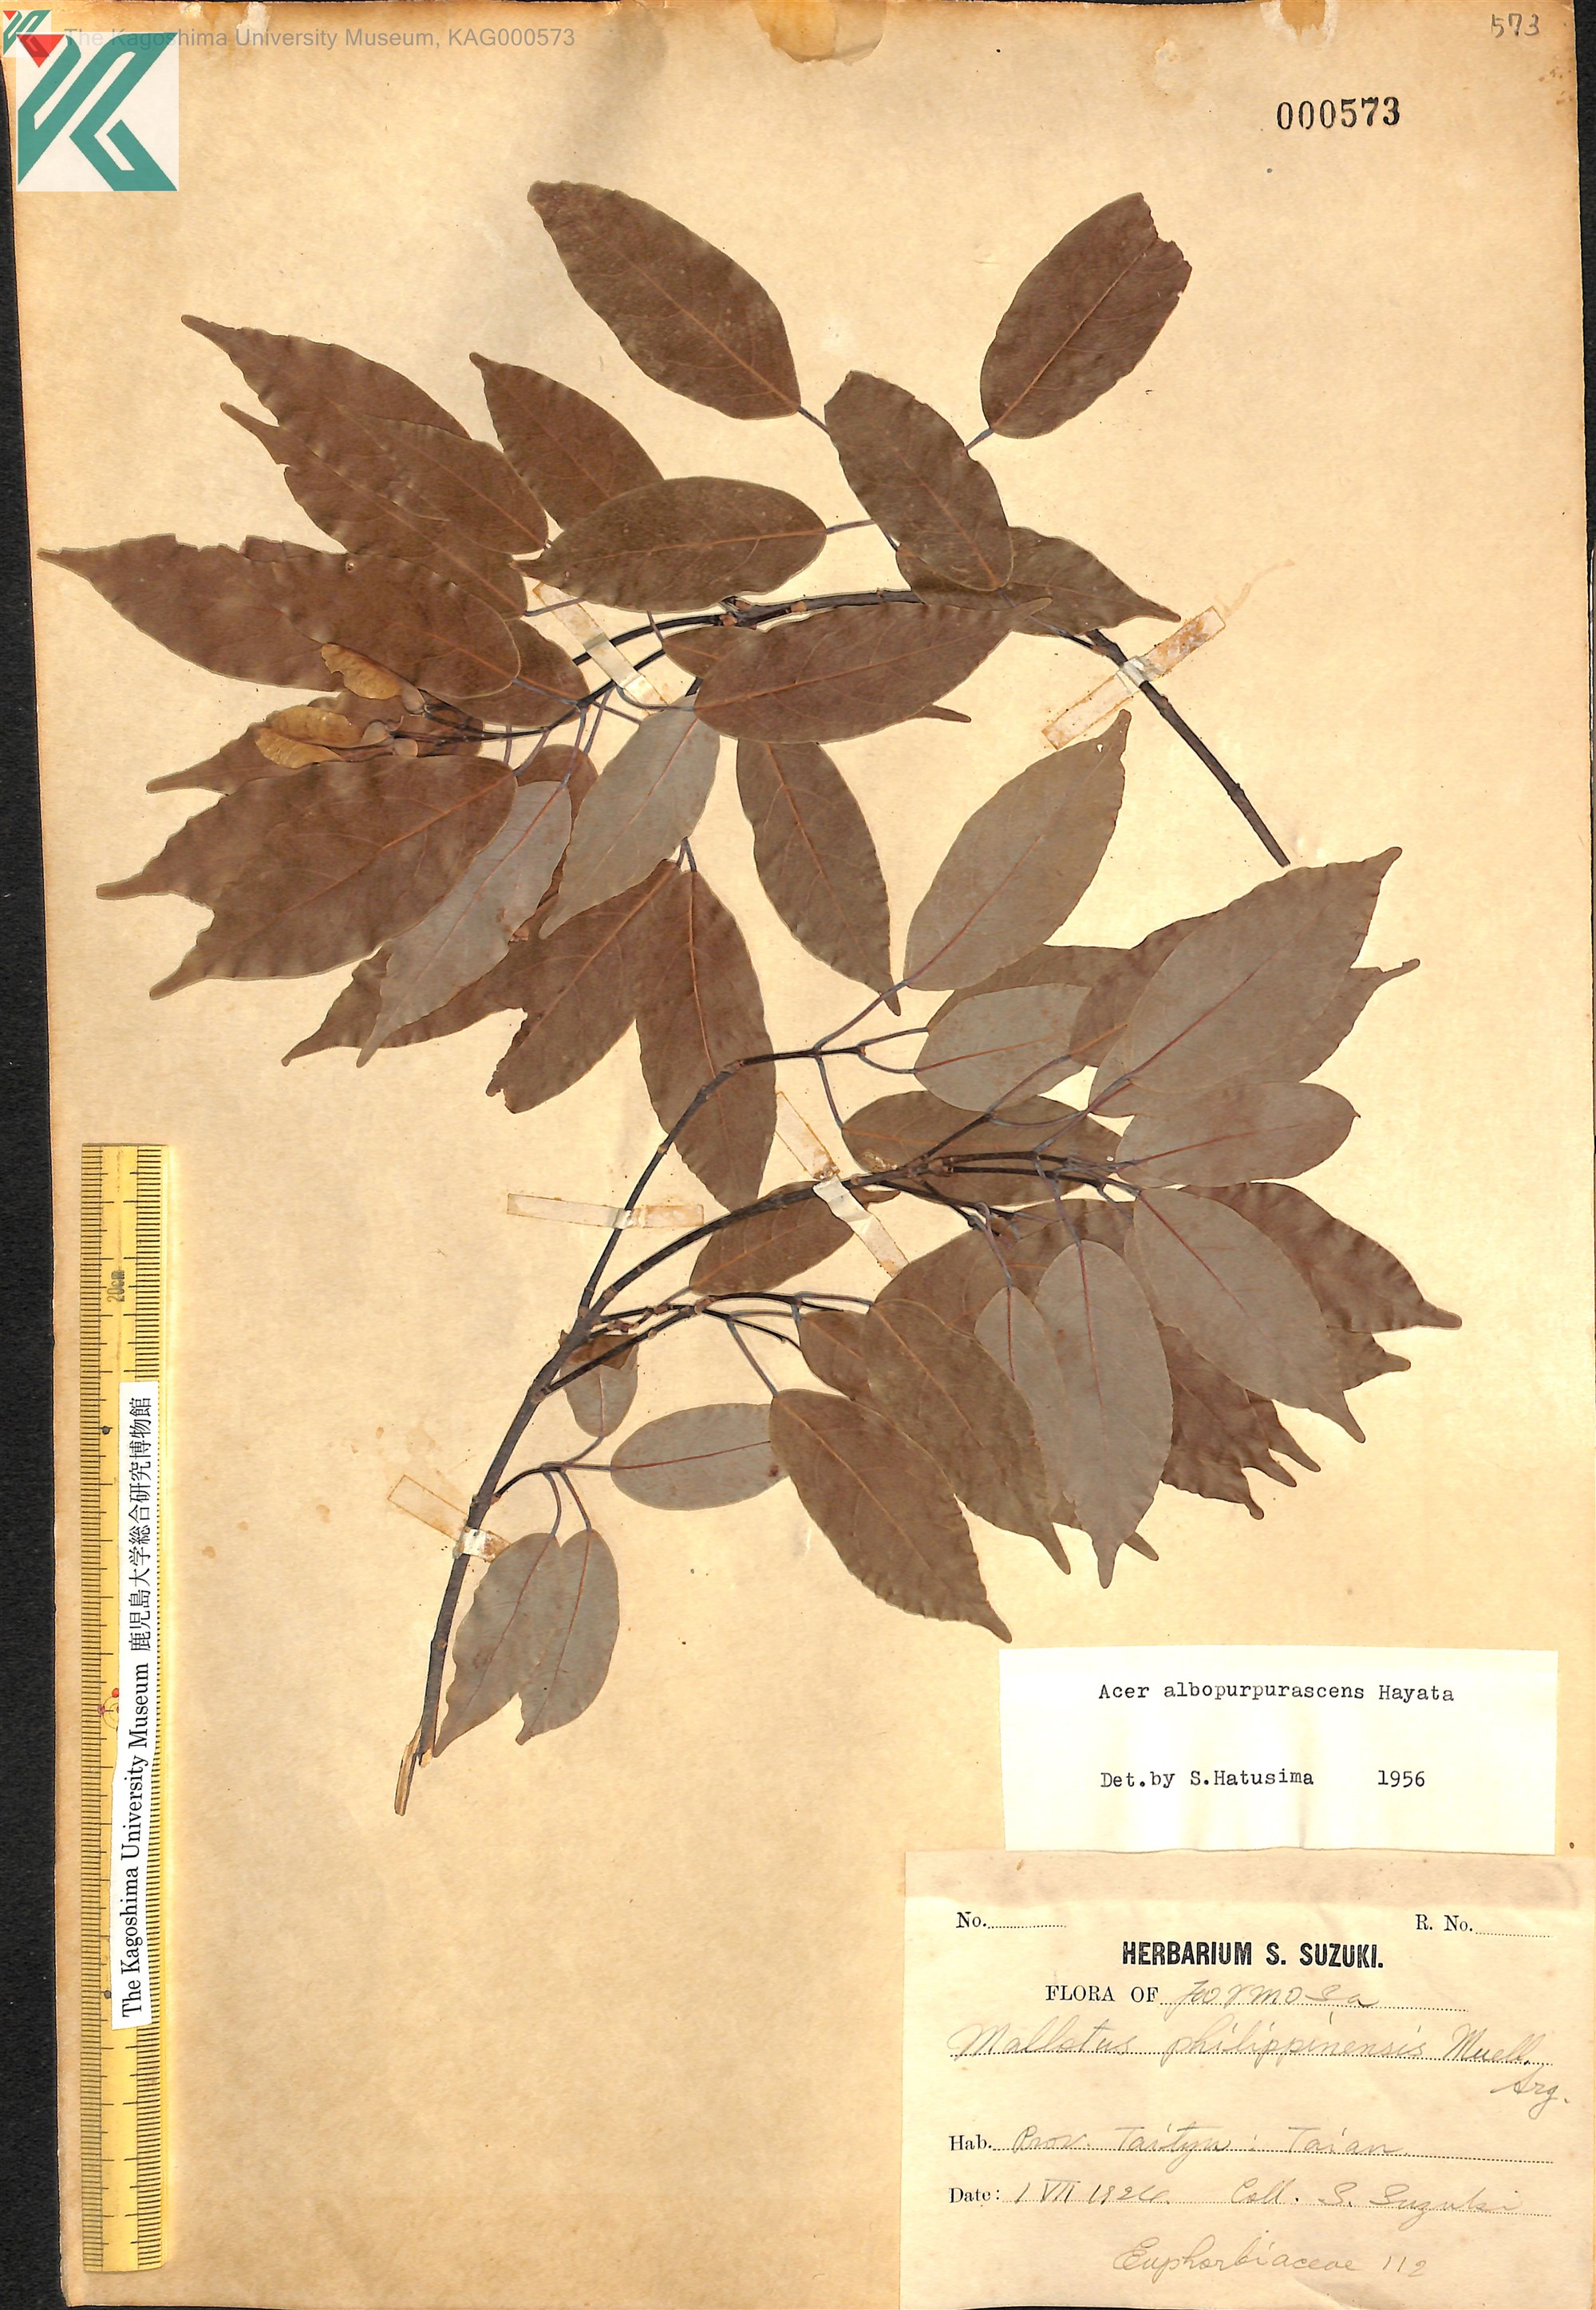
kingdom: Plantae
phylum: Tracheophyta
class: Magnoliopsida
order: Sapindales
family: Sapindaceae
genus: Acer
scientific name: Acer oblongum
